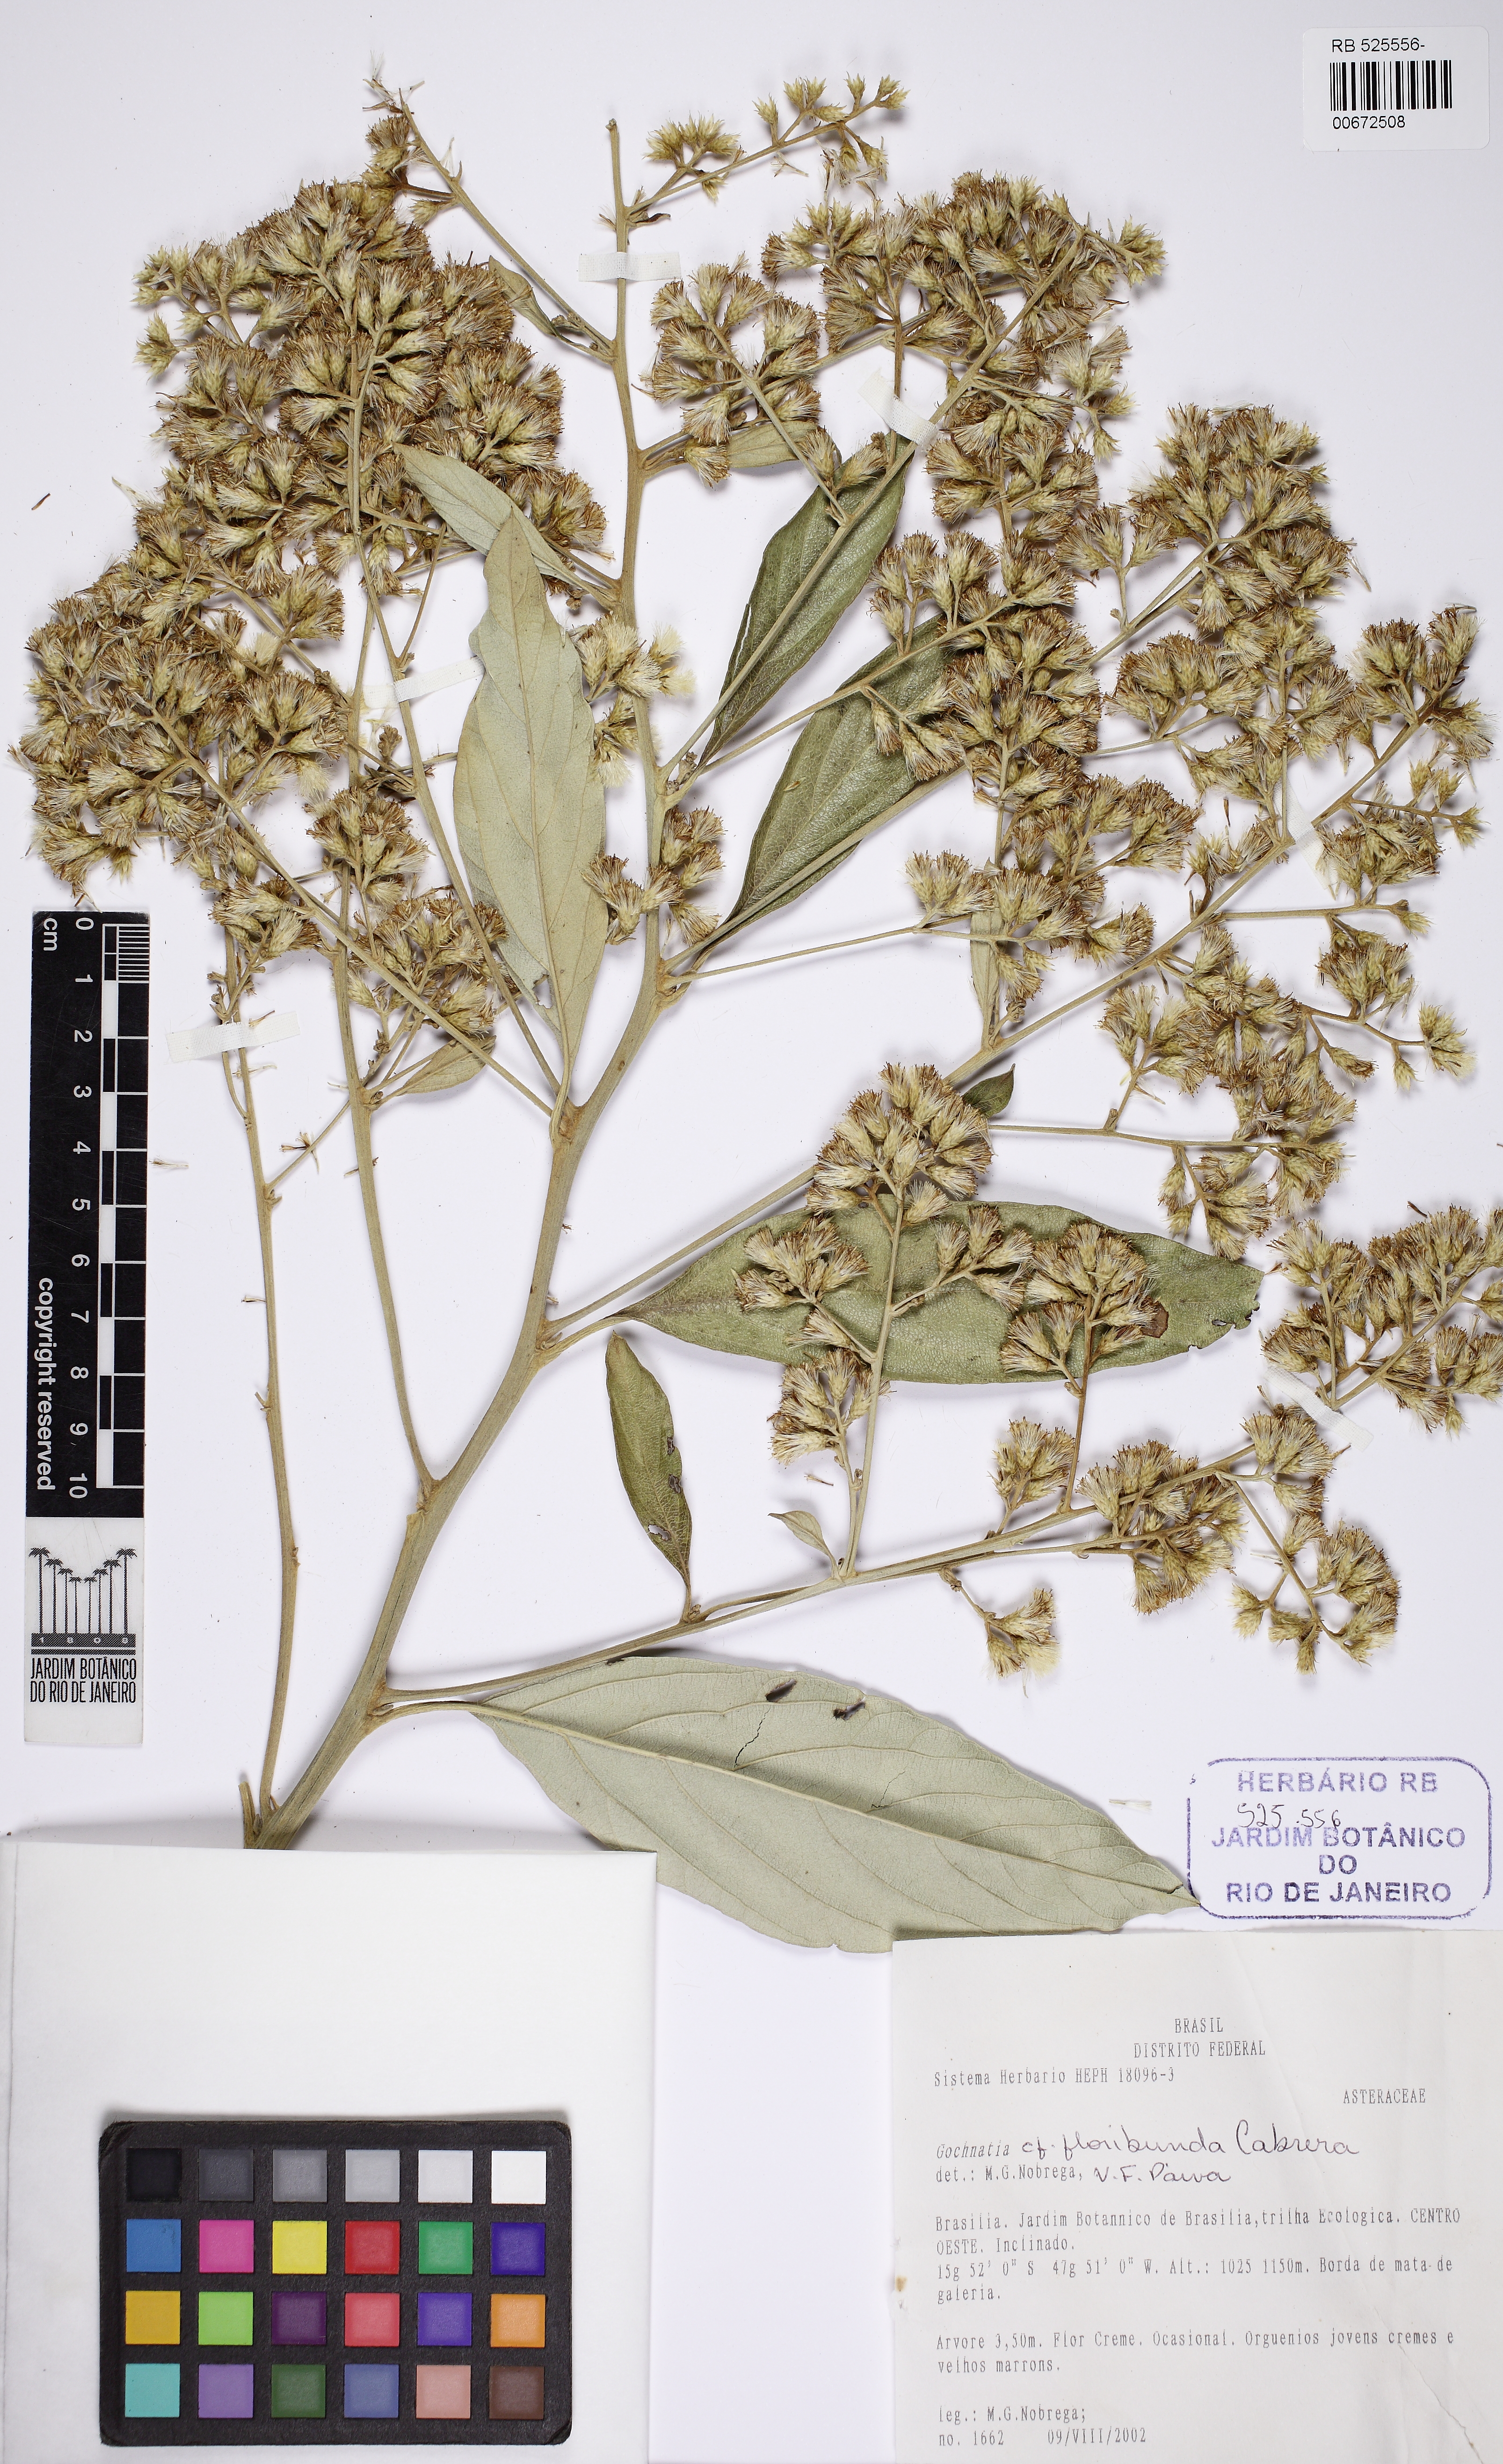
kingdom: Plantae
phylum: Tracheophyta
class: Magnoliopsida
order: Asterales
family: Asteraceae
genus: Moquiniastrum
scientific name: Moquiniastrum floribundum
